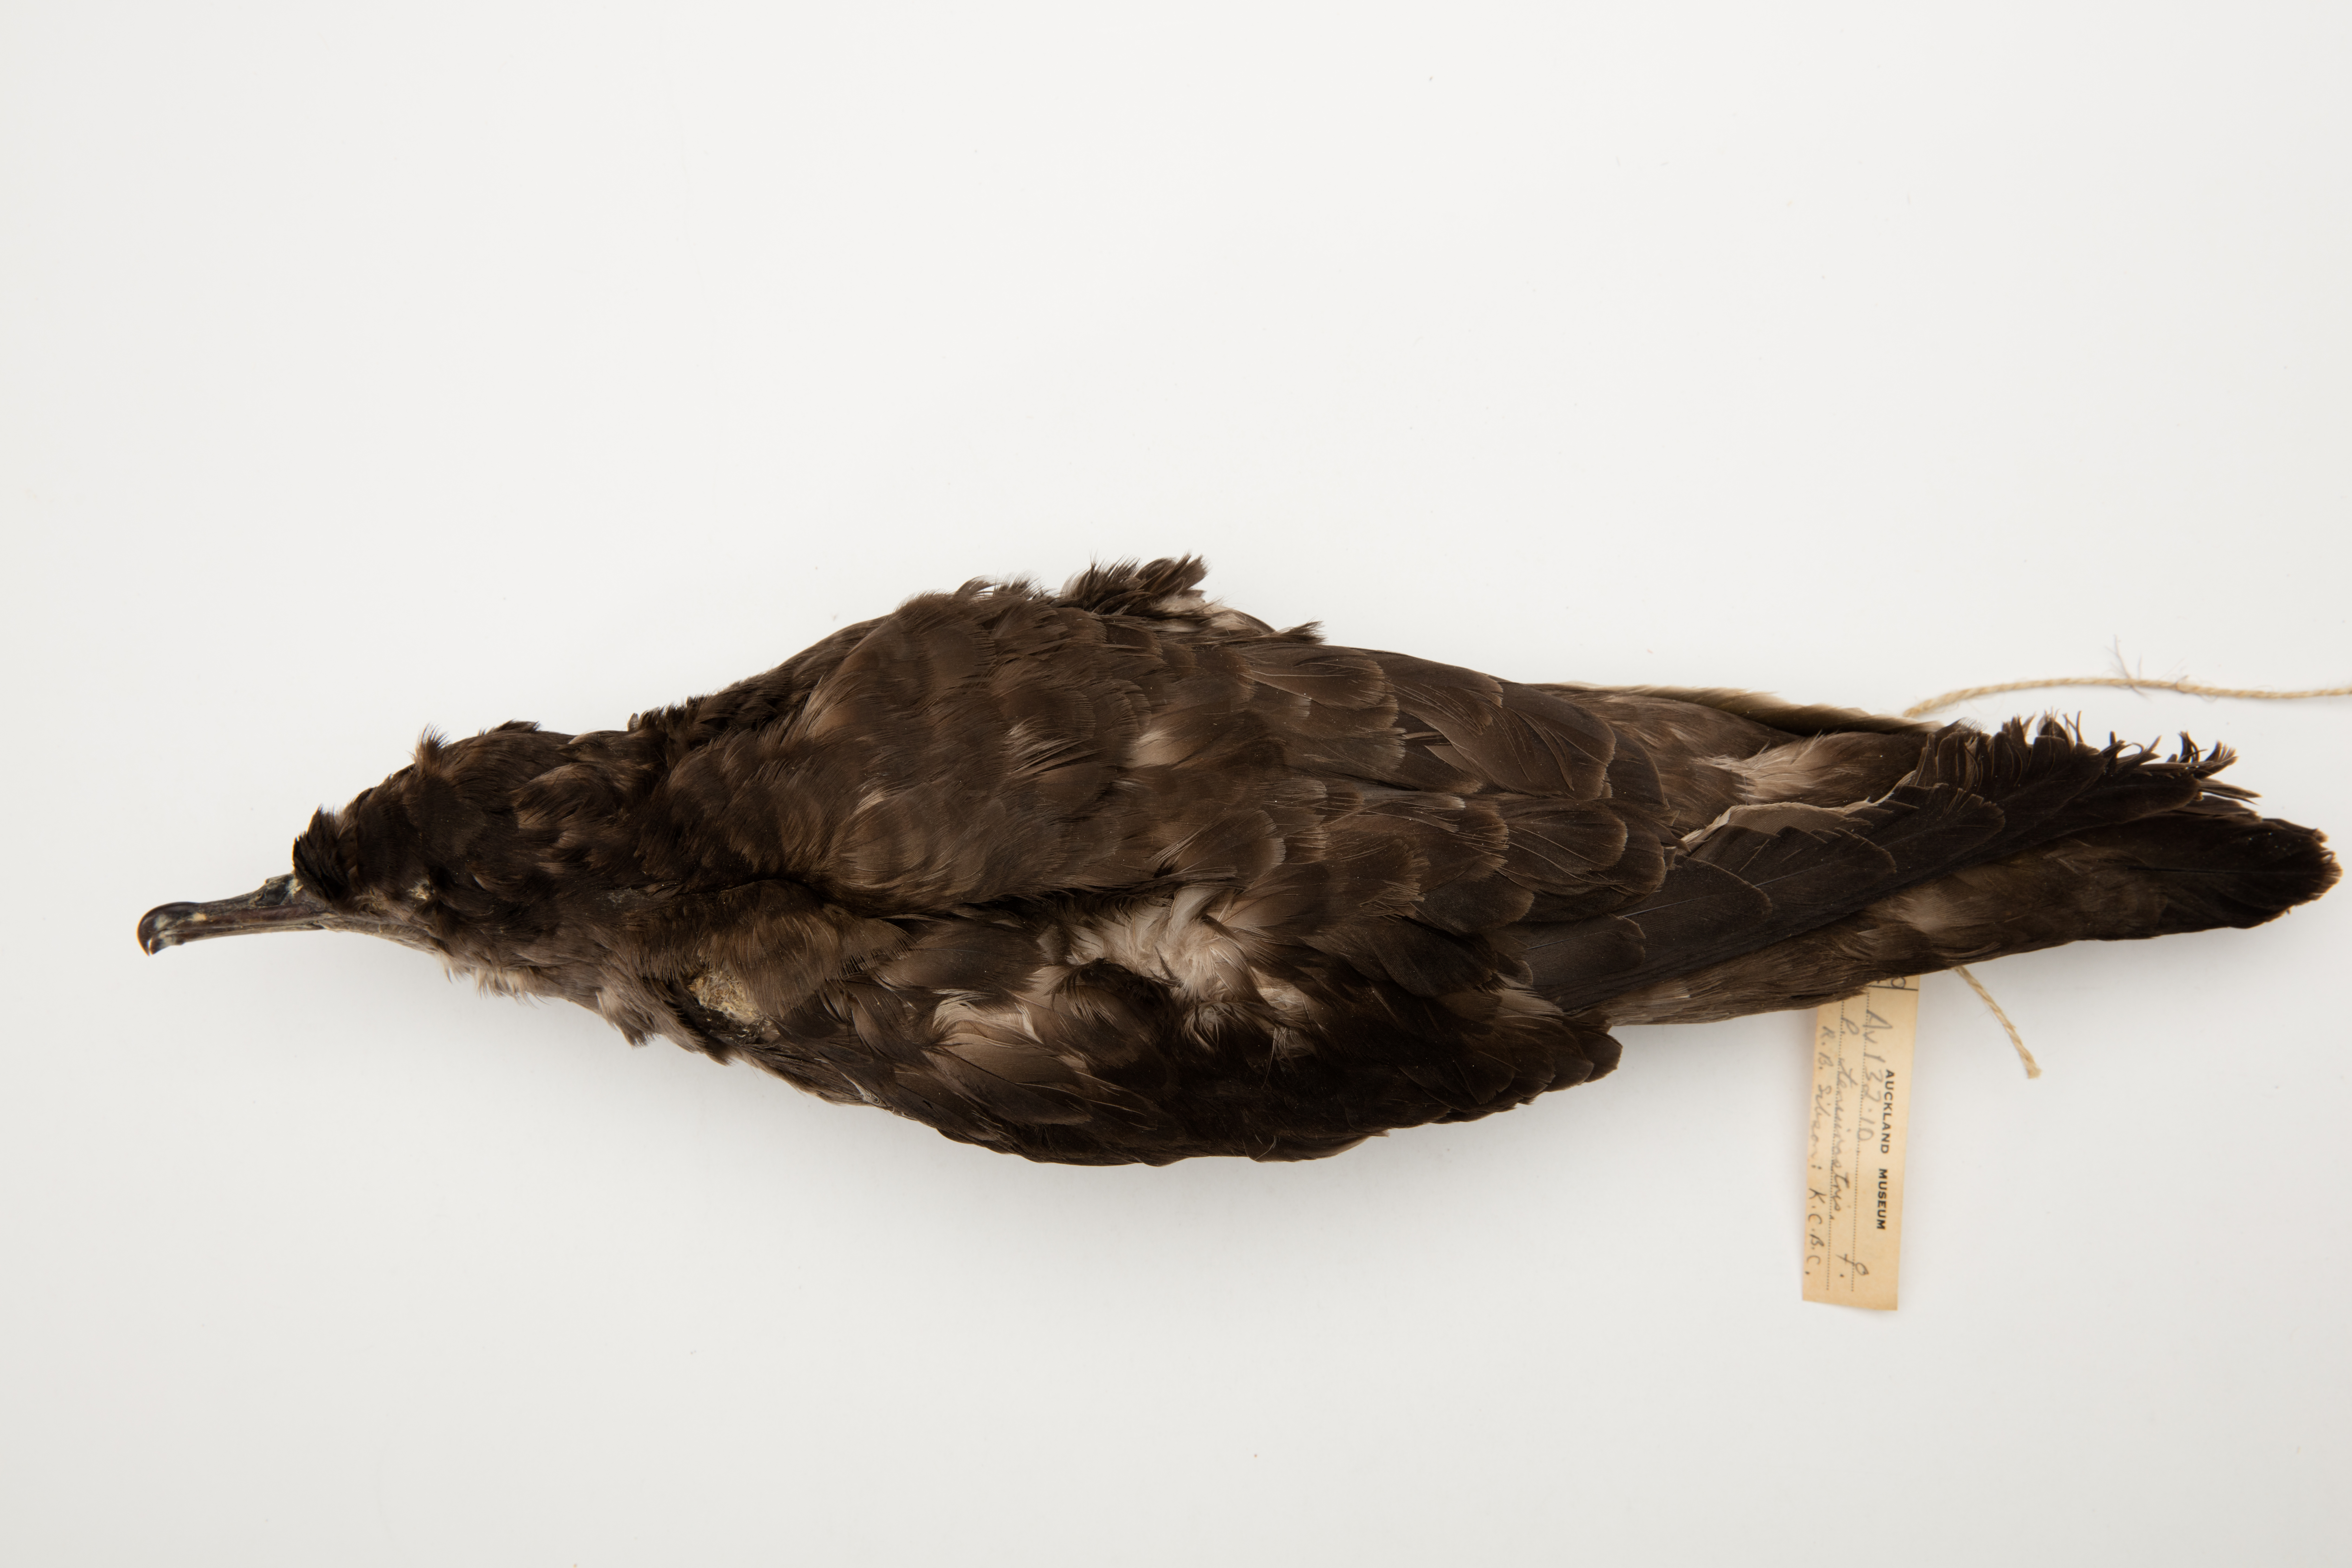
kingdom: Animalia
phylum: Chordata
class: Aves
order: Procellariiformes
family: Procellariidae
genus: Puffinus
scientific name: Puffinus tenuirostris
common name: Short-tailed shearwater
